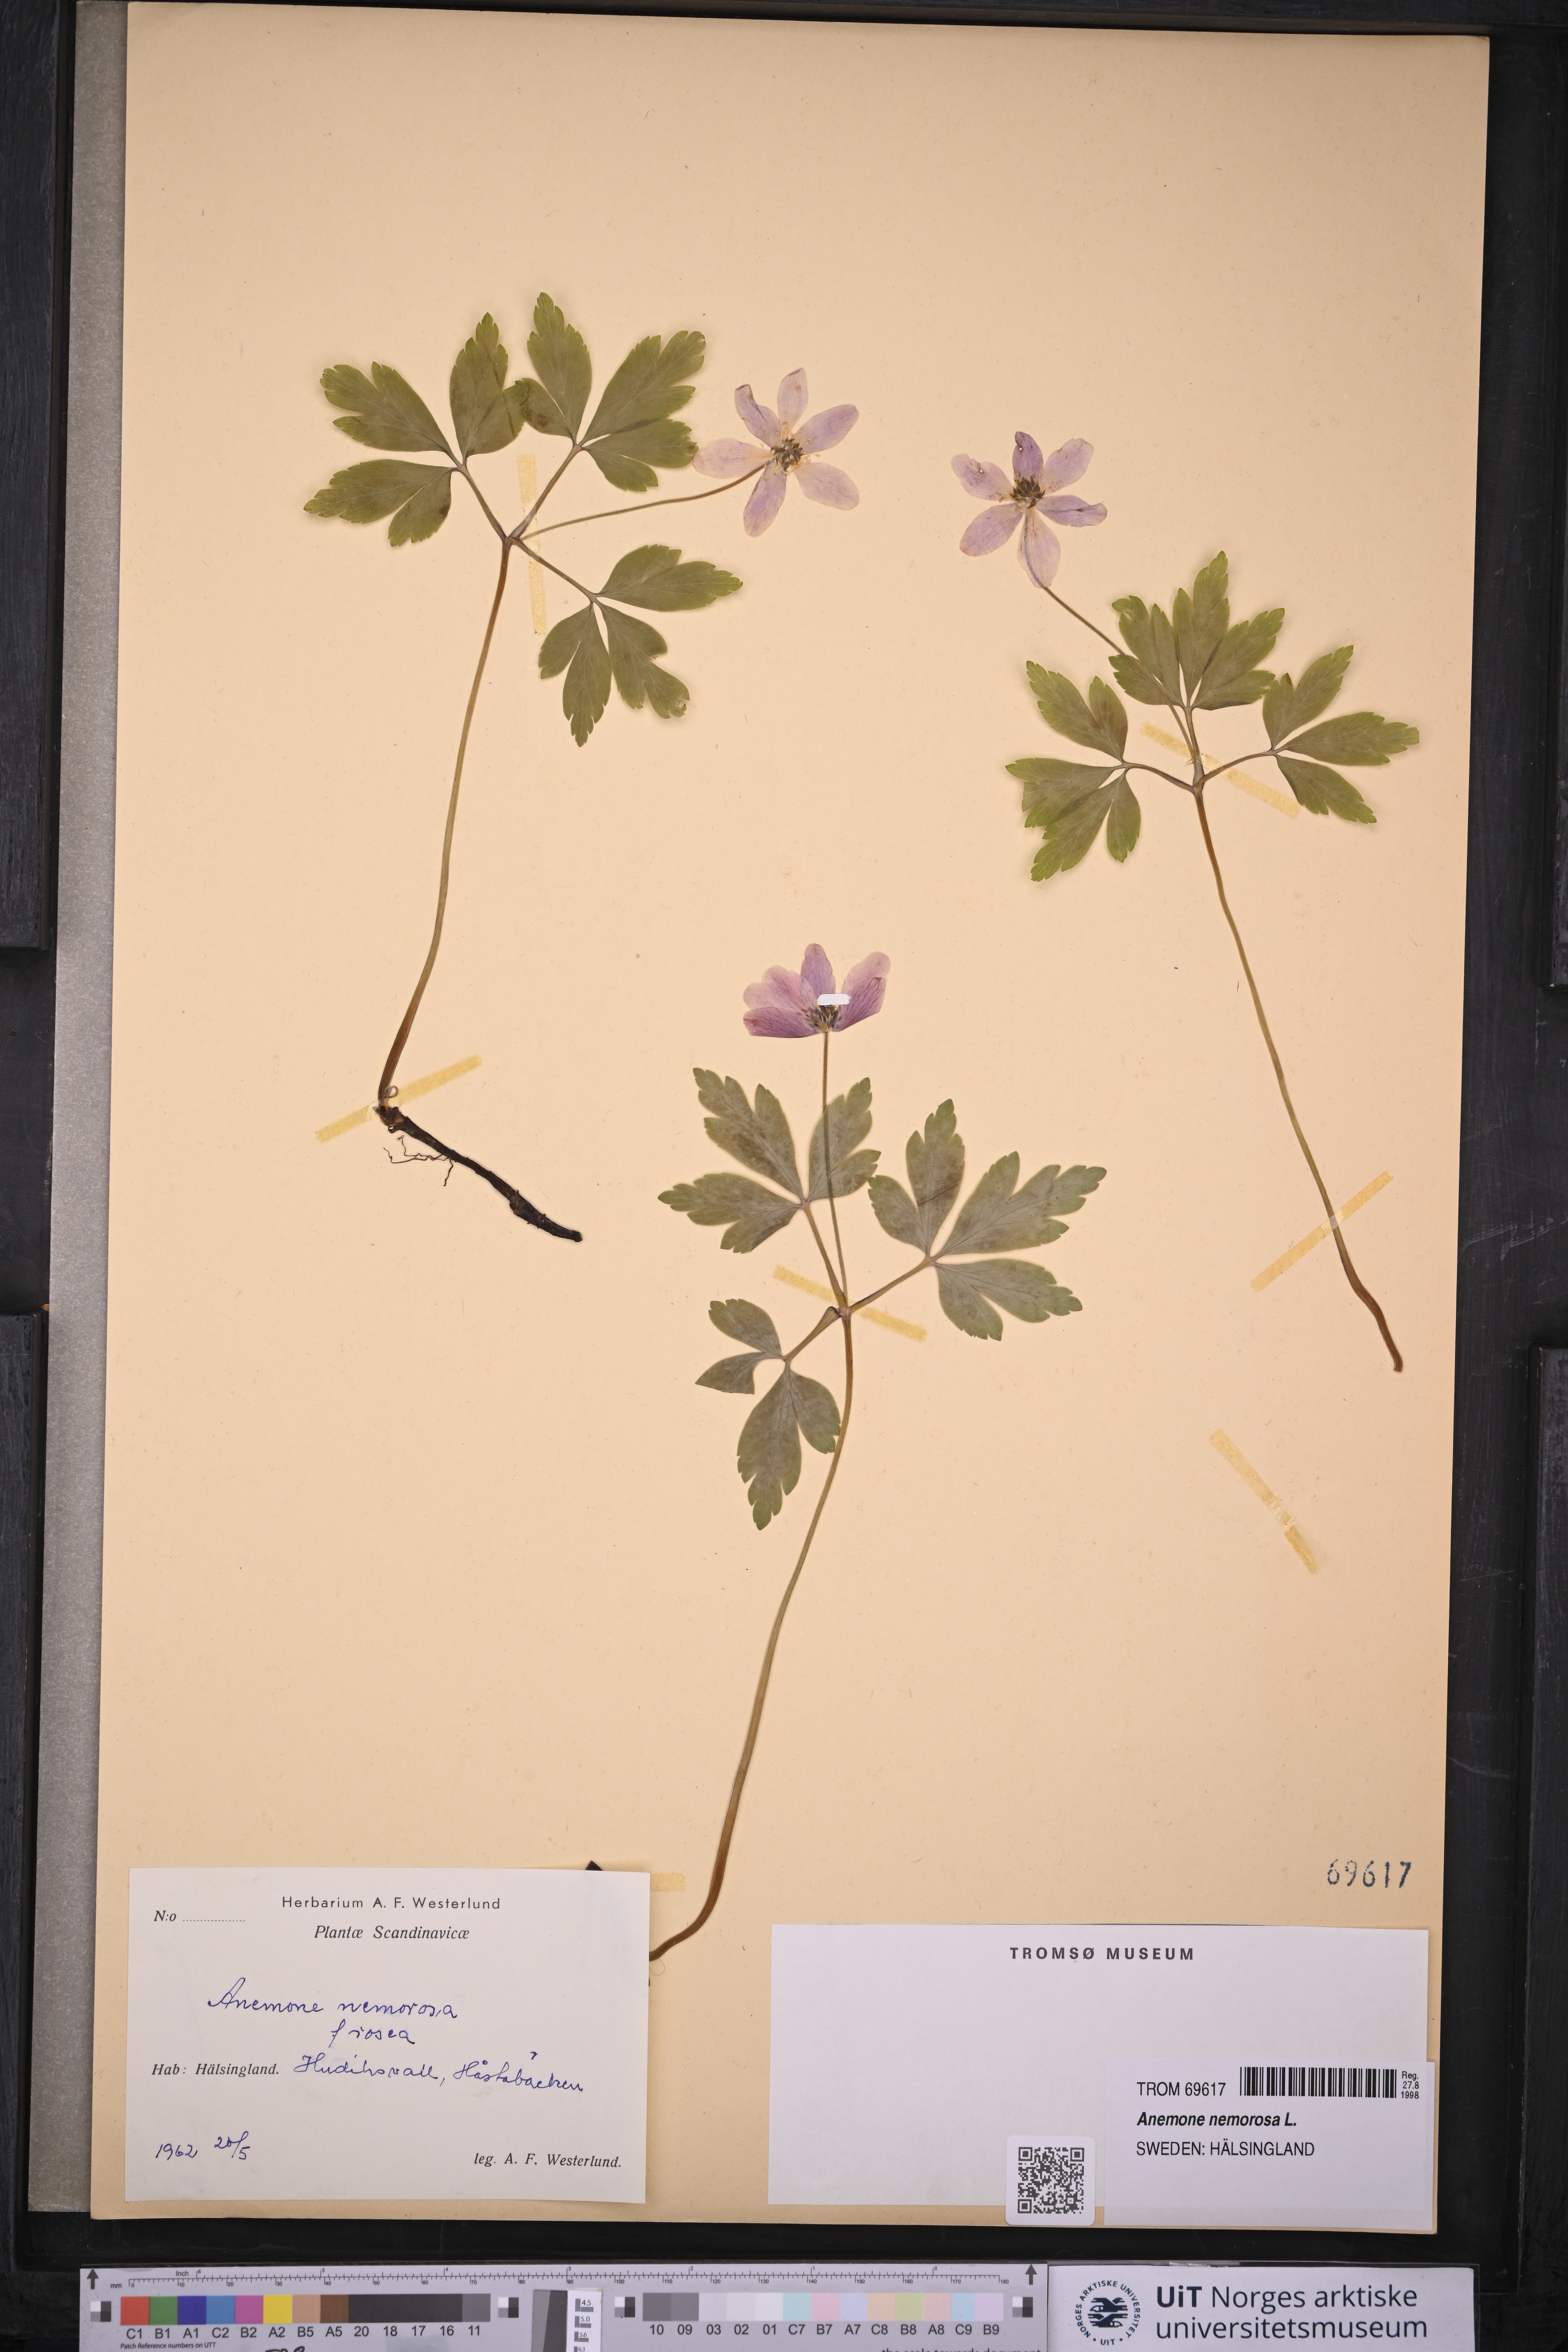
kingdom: Plantae
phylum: Tracheophyta
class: Magnoliopsida
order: Ranunculales
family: Ranunculaceae
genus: Anemone
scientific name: Anemone nemorosa
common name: Wood anemone
